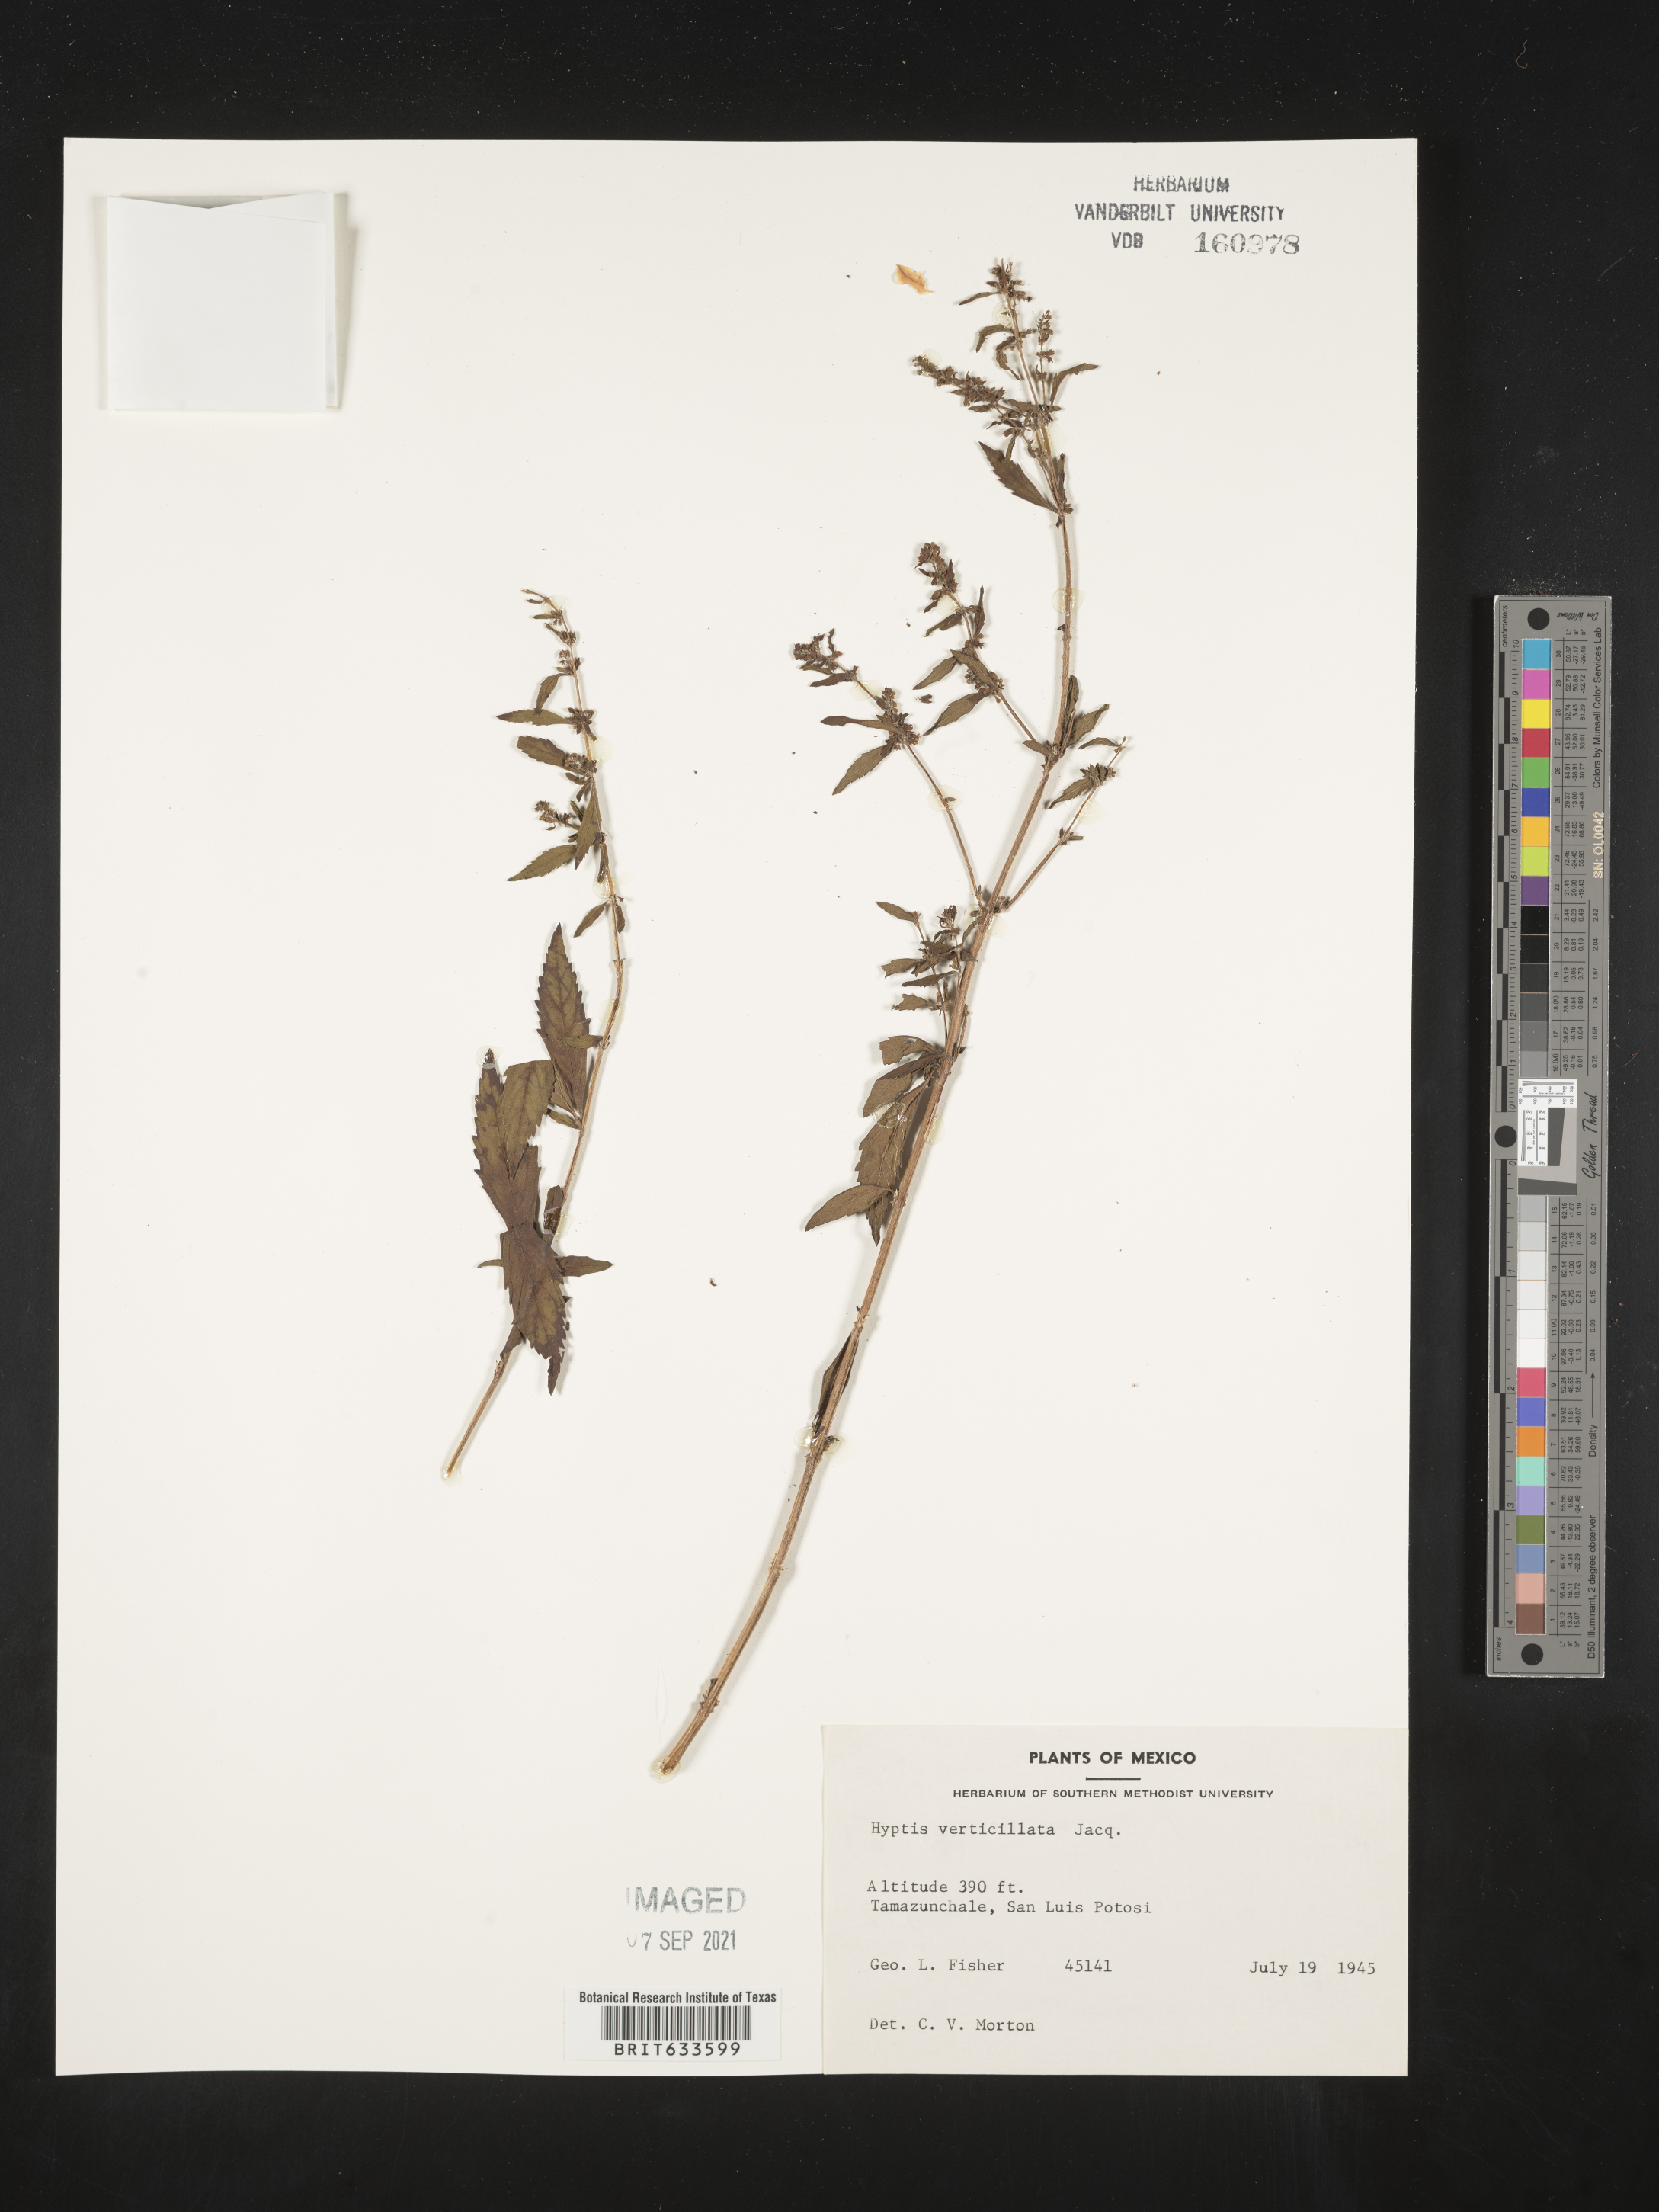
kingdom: Plantae
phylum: Tracheophyta
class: Magnoliopsida
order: Lamiales
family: Lamiaceae
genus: Hyptis
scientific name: Hyptis
